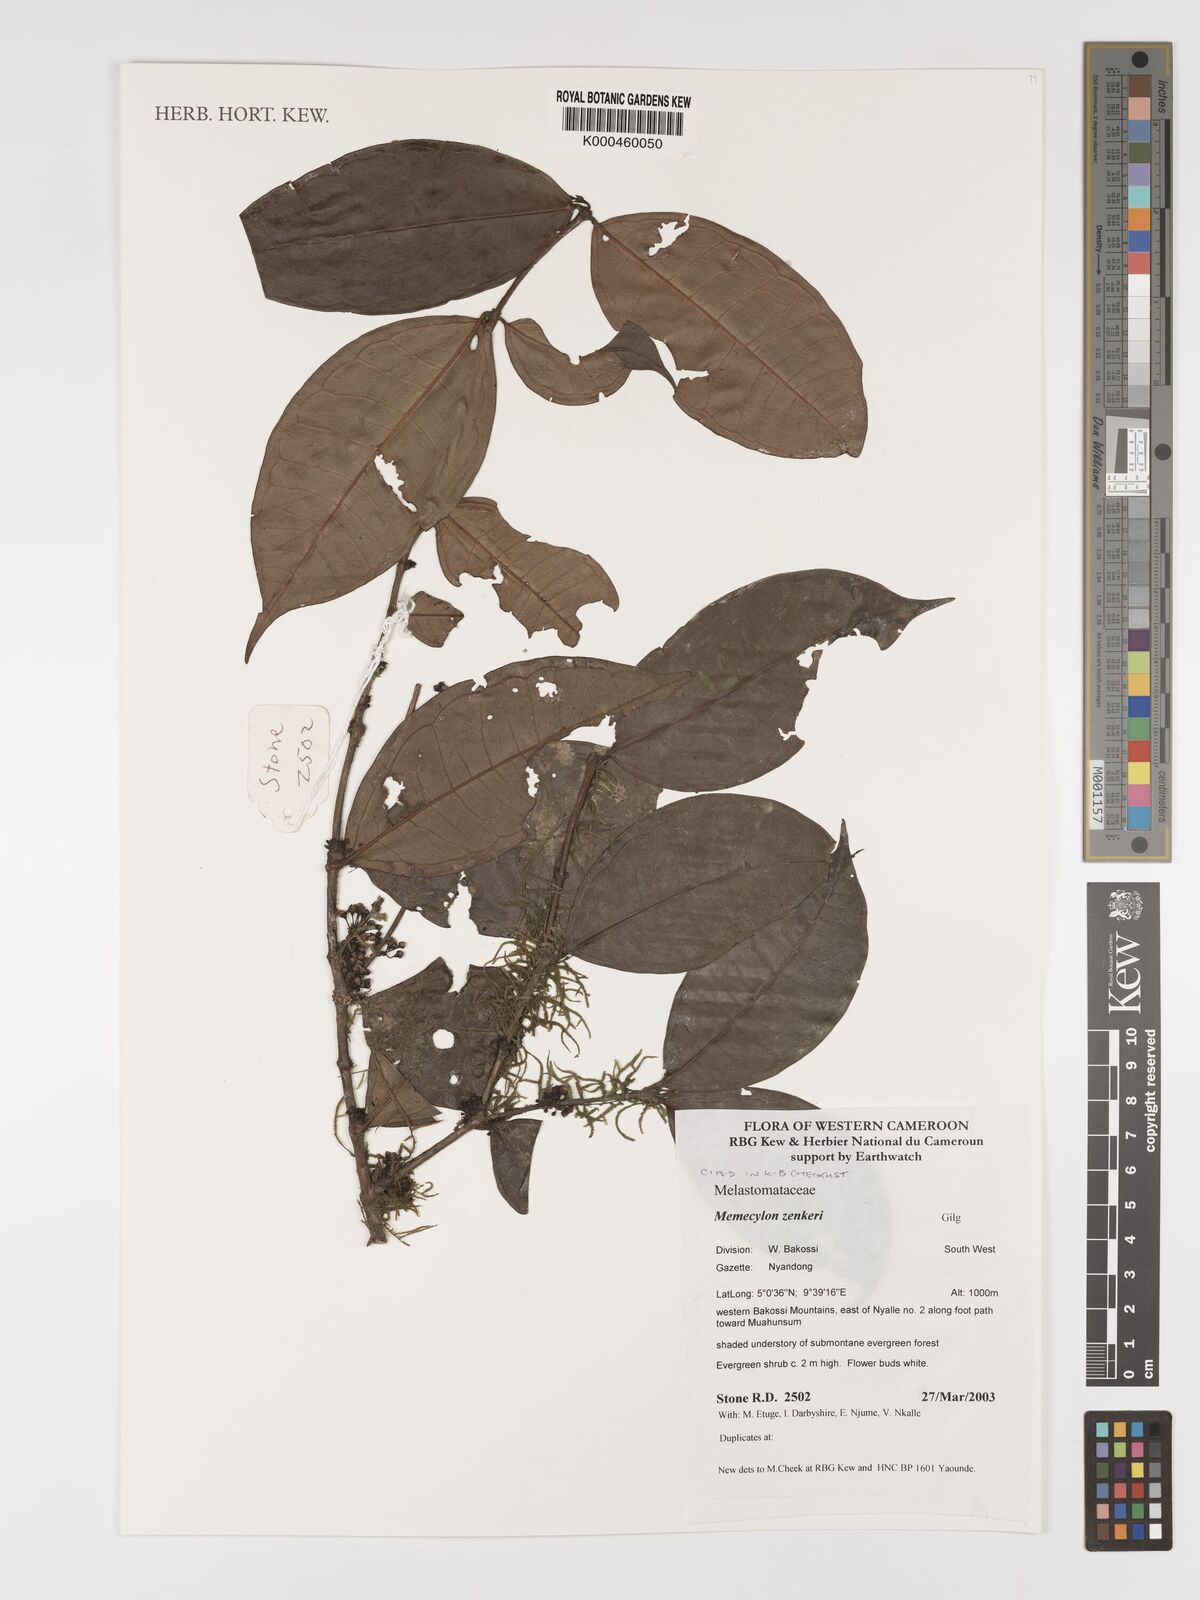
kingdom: Plantae
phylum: Tracheophyta
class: Magnoliopsida
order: Myrtales
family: Melastomataceae
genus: Memecylon
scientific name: Memecylon zenkeri
